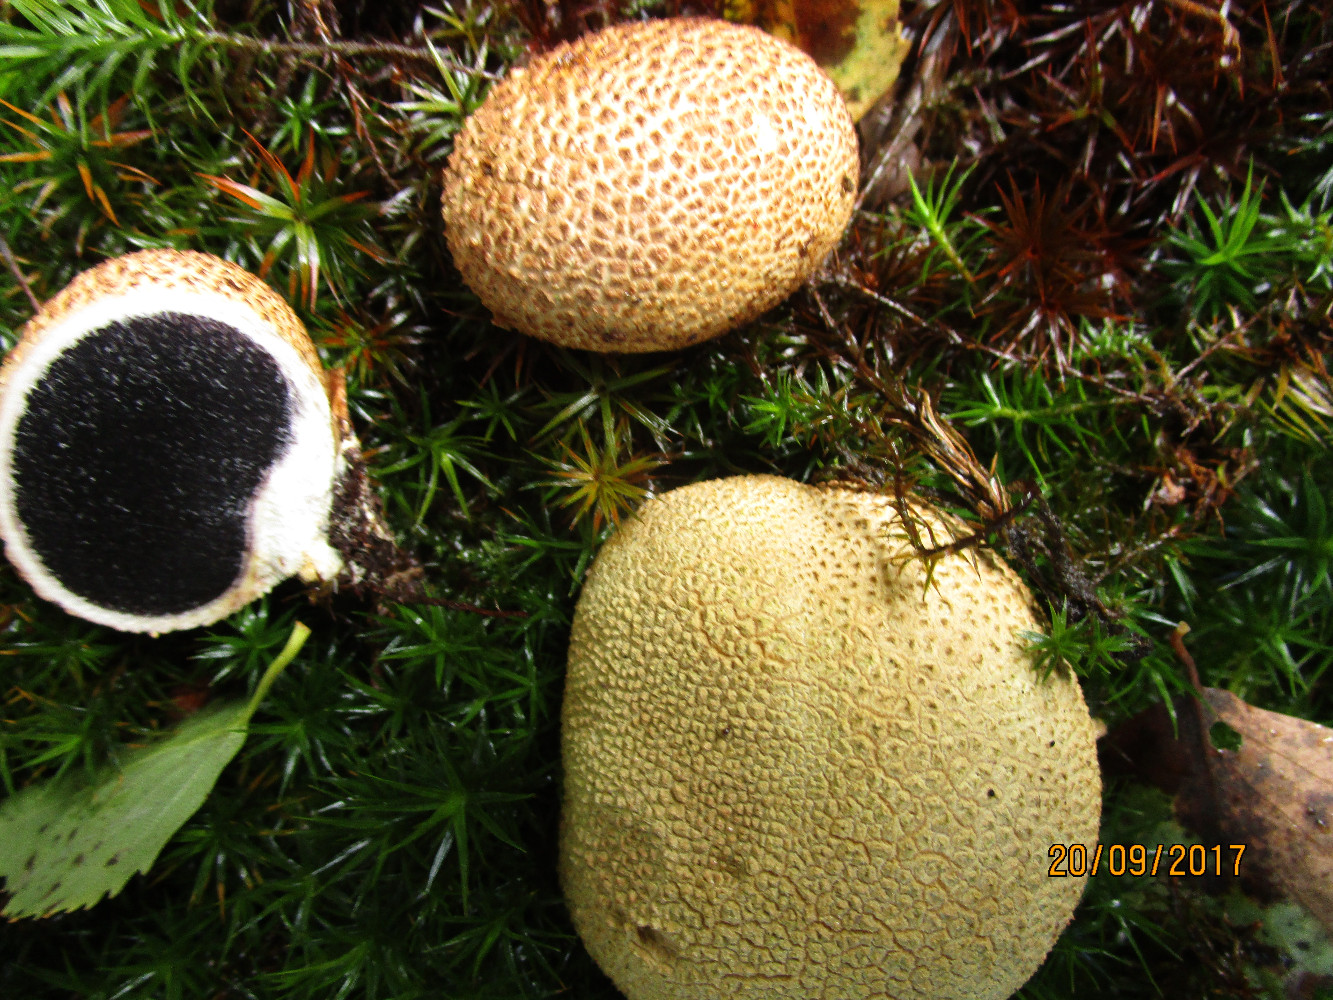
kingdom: Fungi
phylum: Basidiomycota
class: Agaricomycetes
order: Boletales
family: Sclerodermataceae
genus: Scleroderma
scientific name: Scleroderma citrinum
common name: almindelig bruskbold
